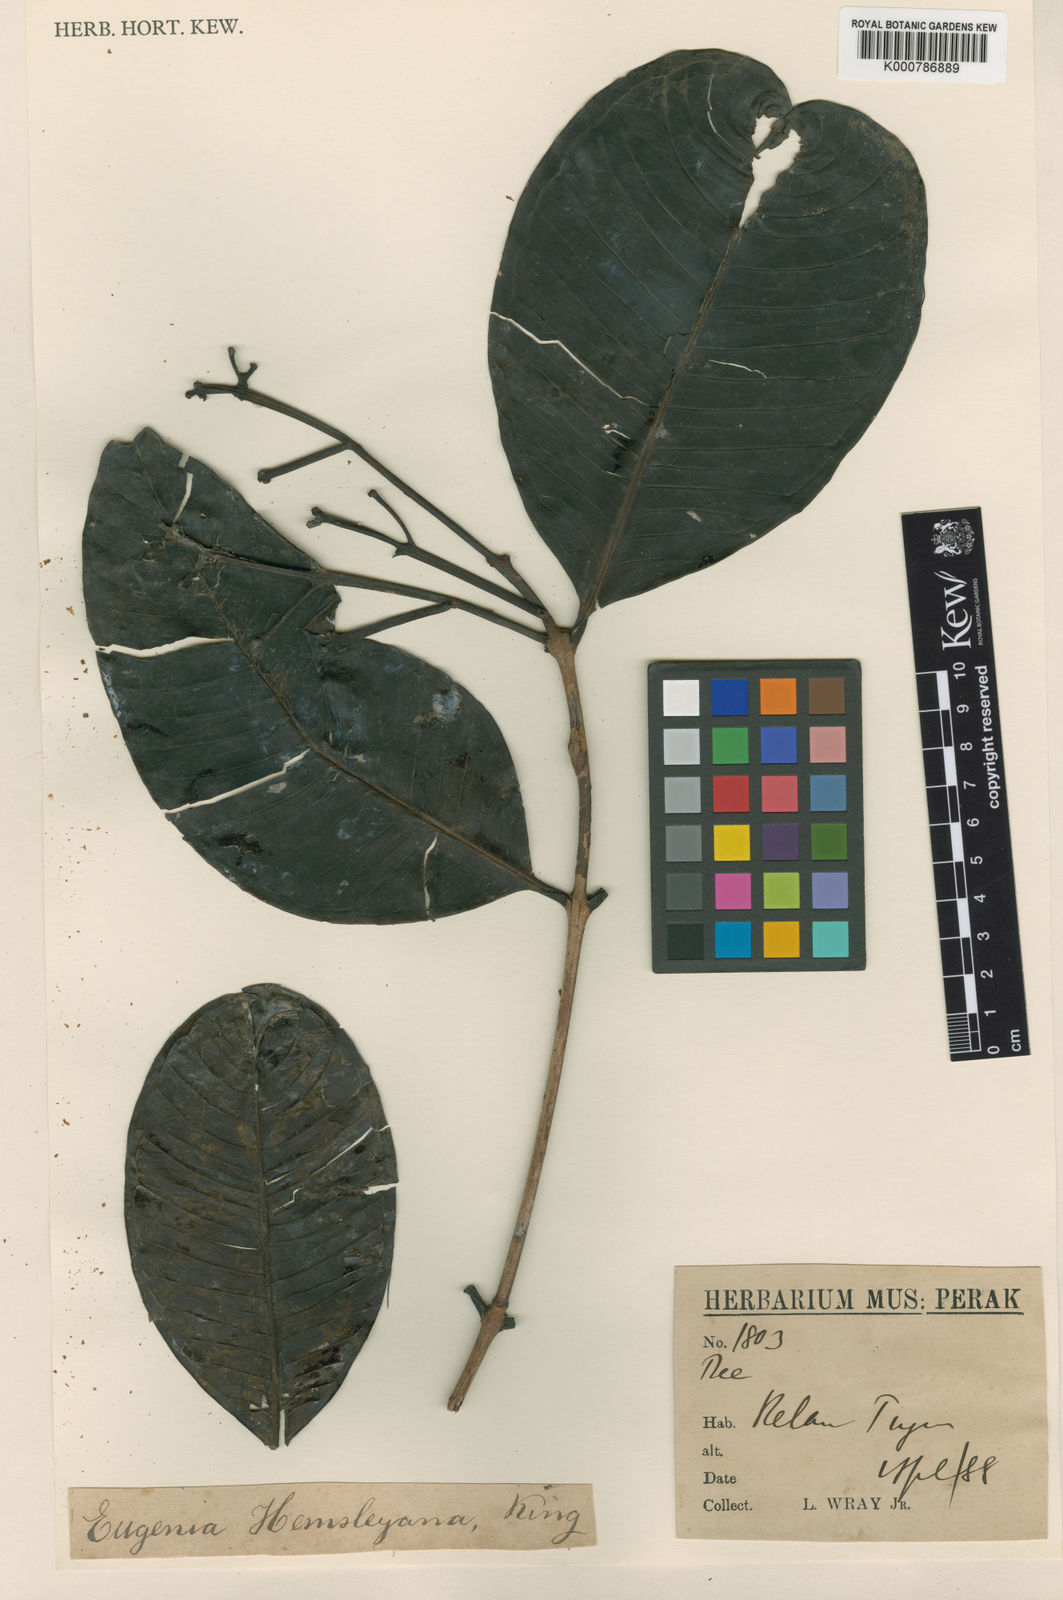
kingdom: Plantae
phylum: Tracheophyta
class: Magnoliopsida
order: Myrtales
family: Myrtaceae
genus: Syzygium
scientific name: Syzygium hemsleyanum
